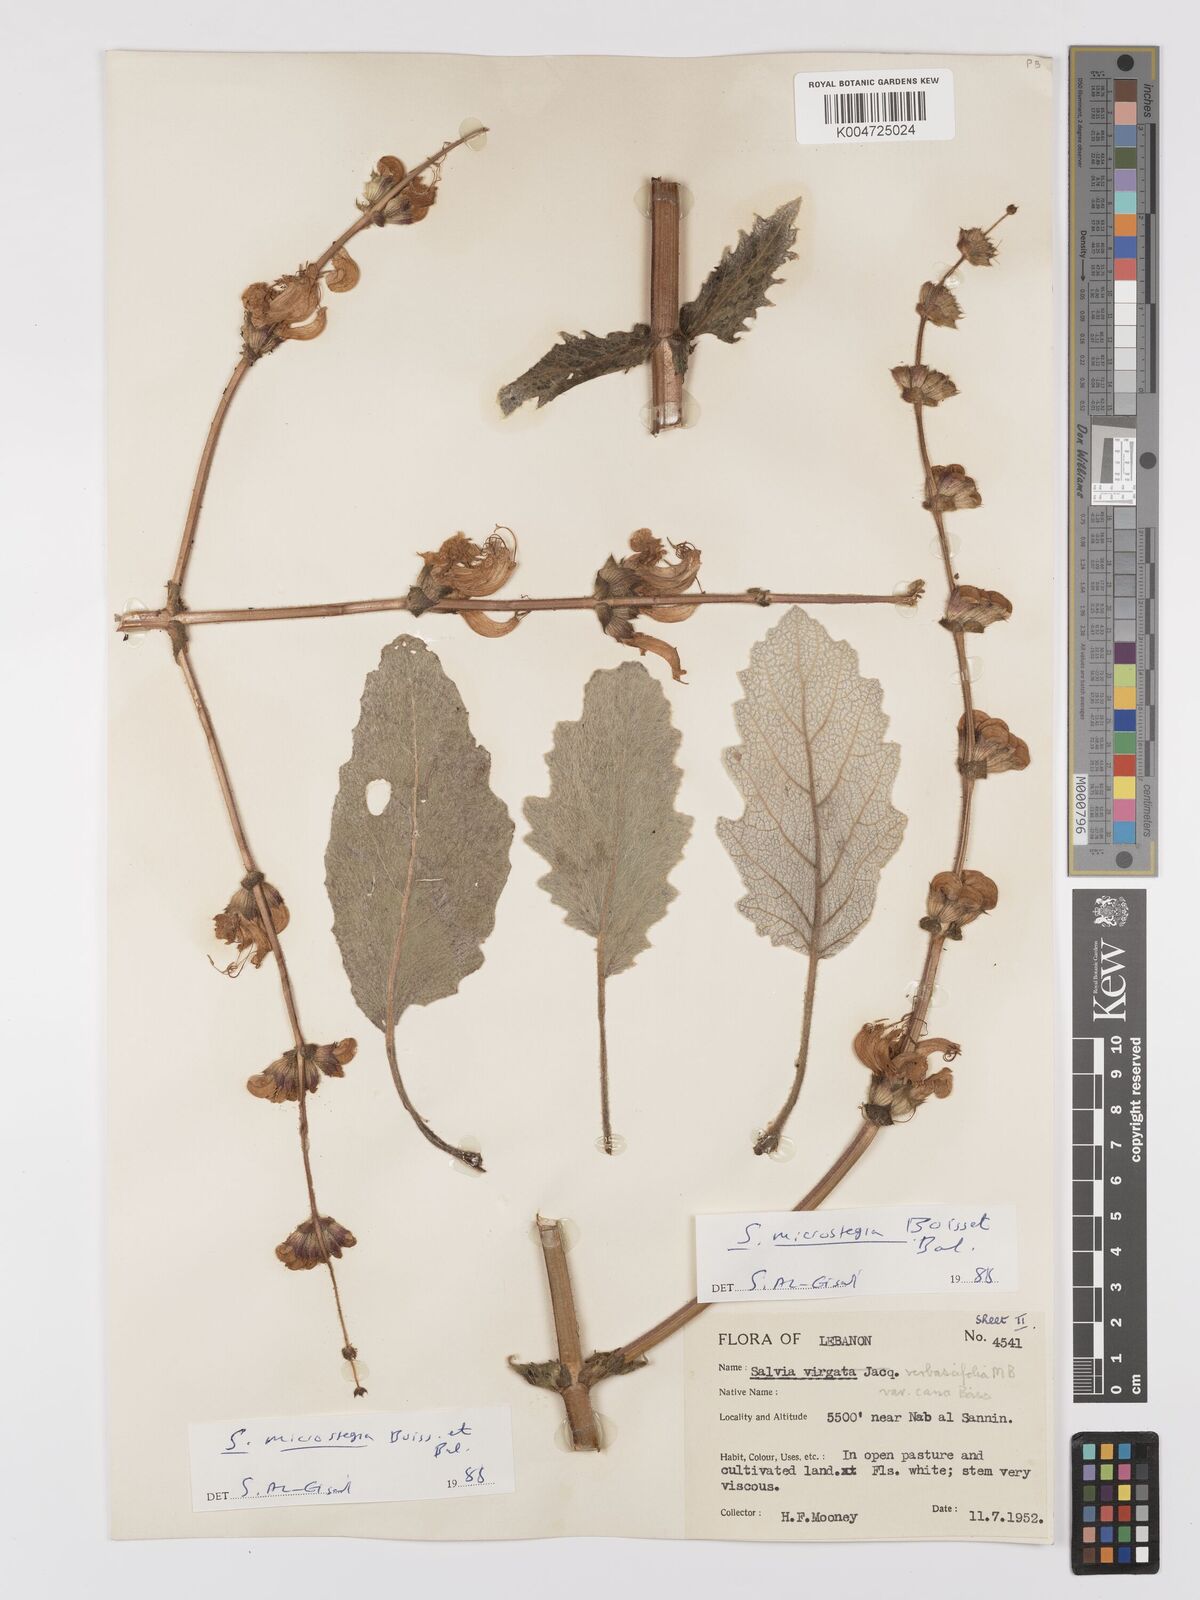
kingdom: Plantae
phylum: Tracheophyta
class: Magnoliopsida
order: Lamiales
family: Lamiaceae
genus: Salvia
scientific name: Salvia verbascifolia
